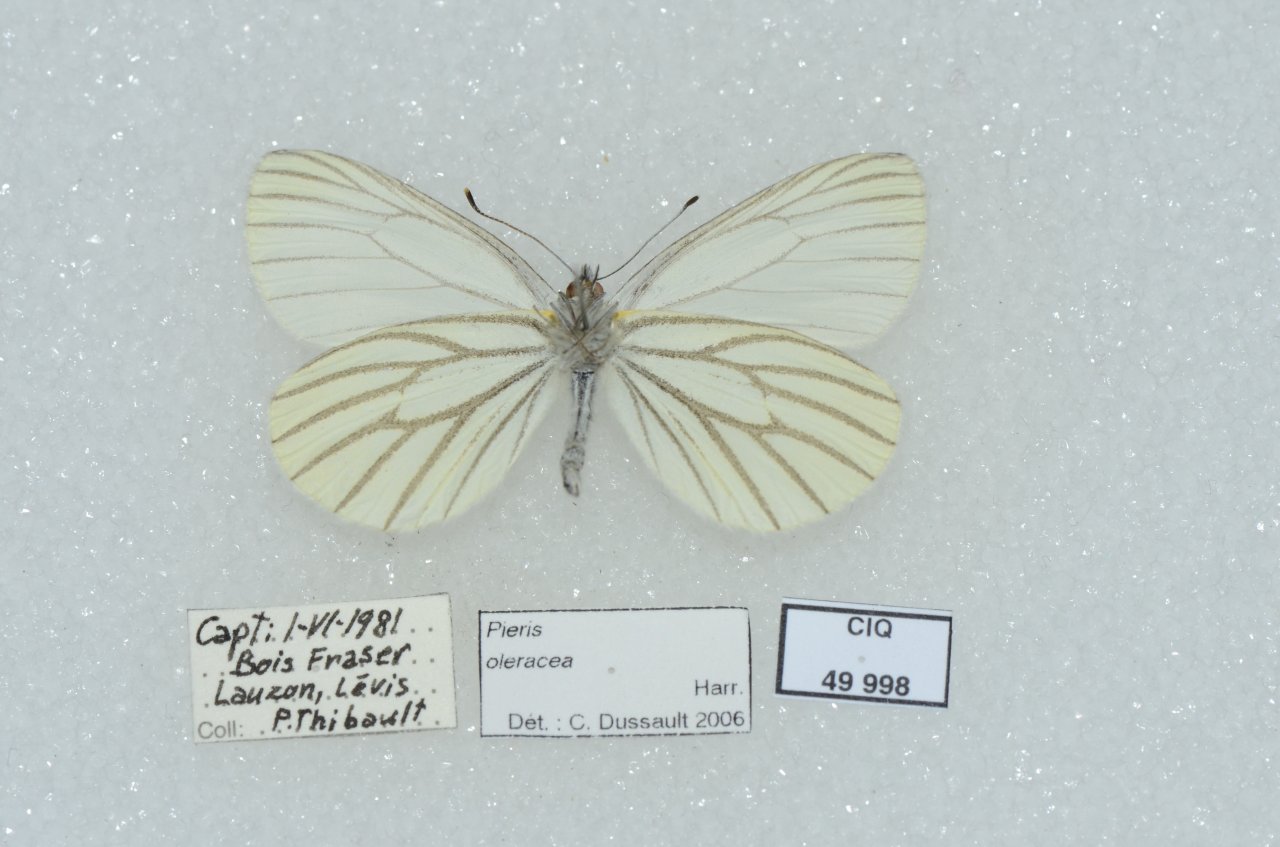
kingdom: Animalia
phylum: Arthropoda
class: Insecta
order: Lepidoptera
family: Pieridae
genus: Pieris
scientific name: Pieris oleracea
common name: Mustard White
